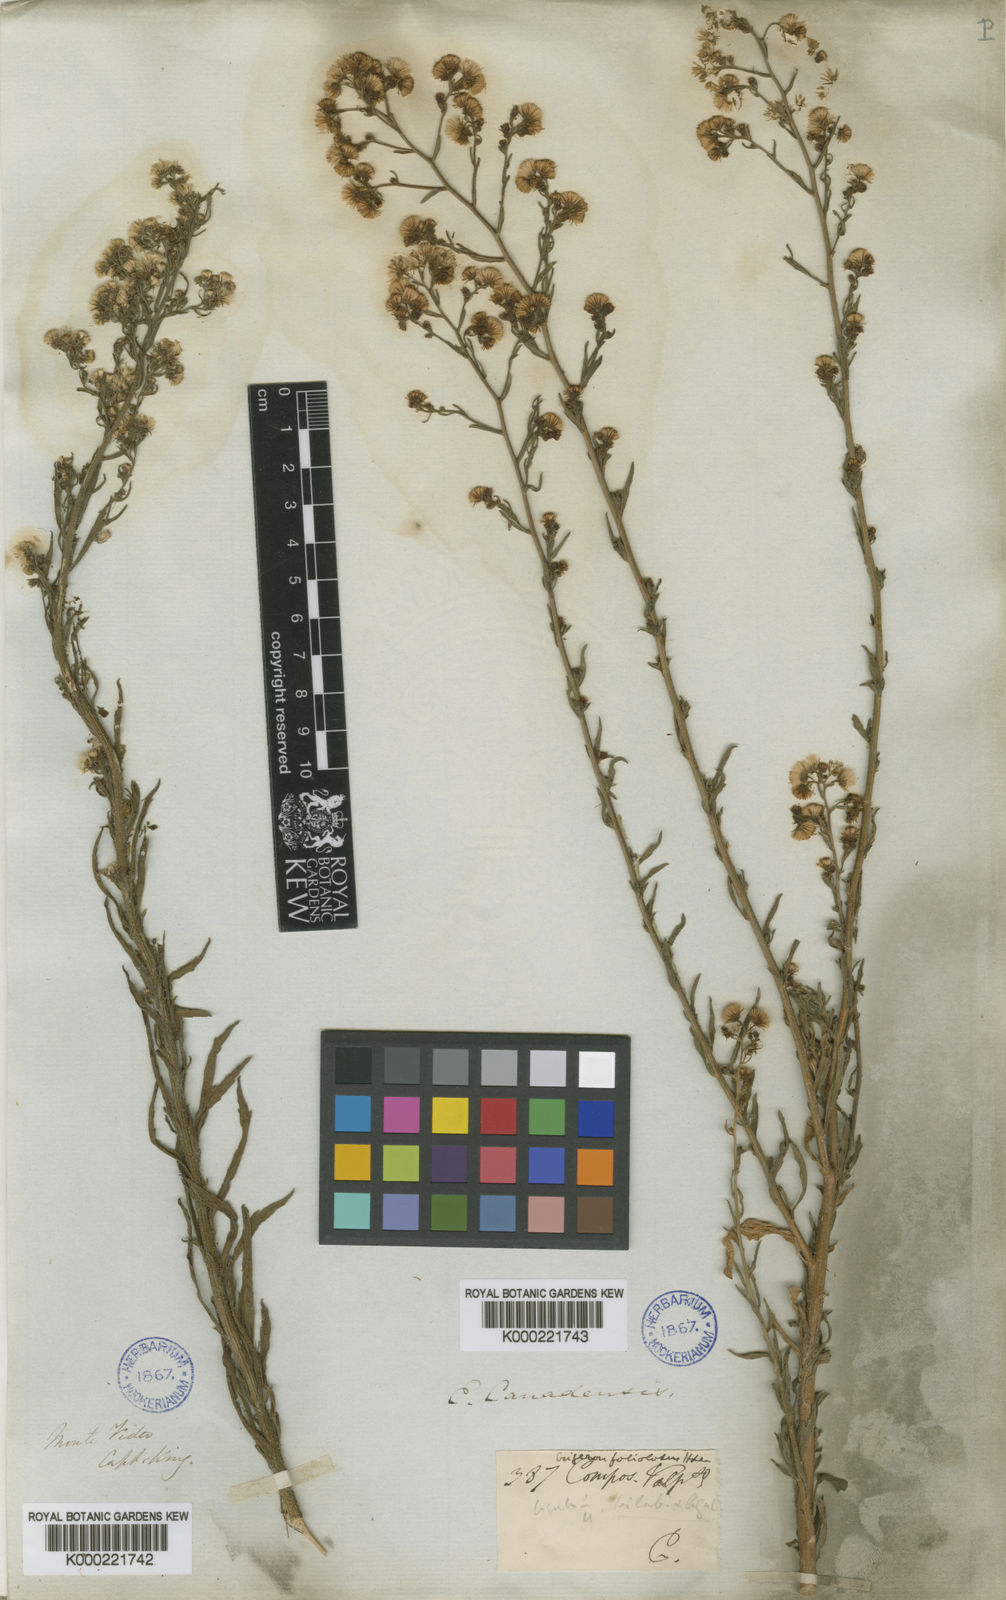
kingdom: Plantae
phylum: Tracheophyta
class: Magnoliopsida
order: Asterales
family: Asteraceae
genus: Erigeron
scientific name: Erigeron canadensis
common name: Canadian fleabane
